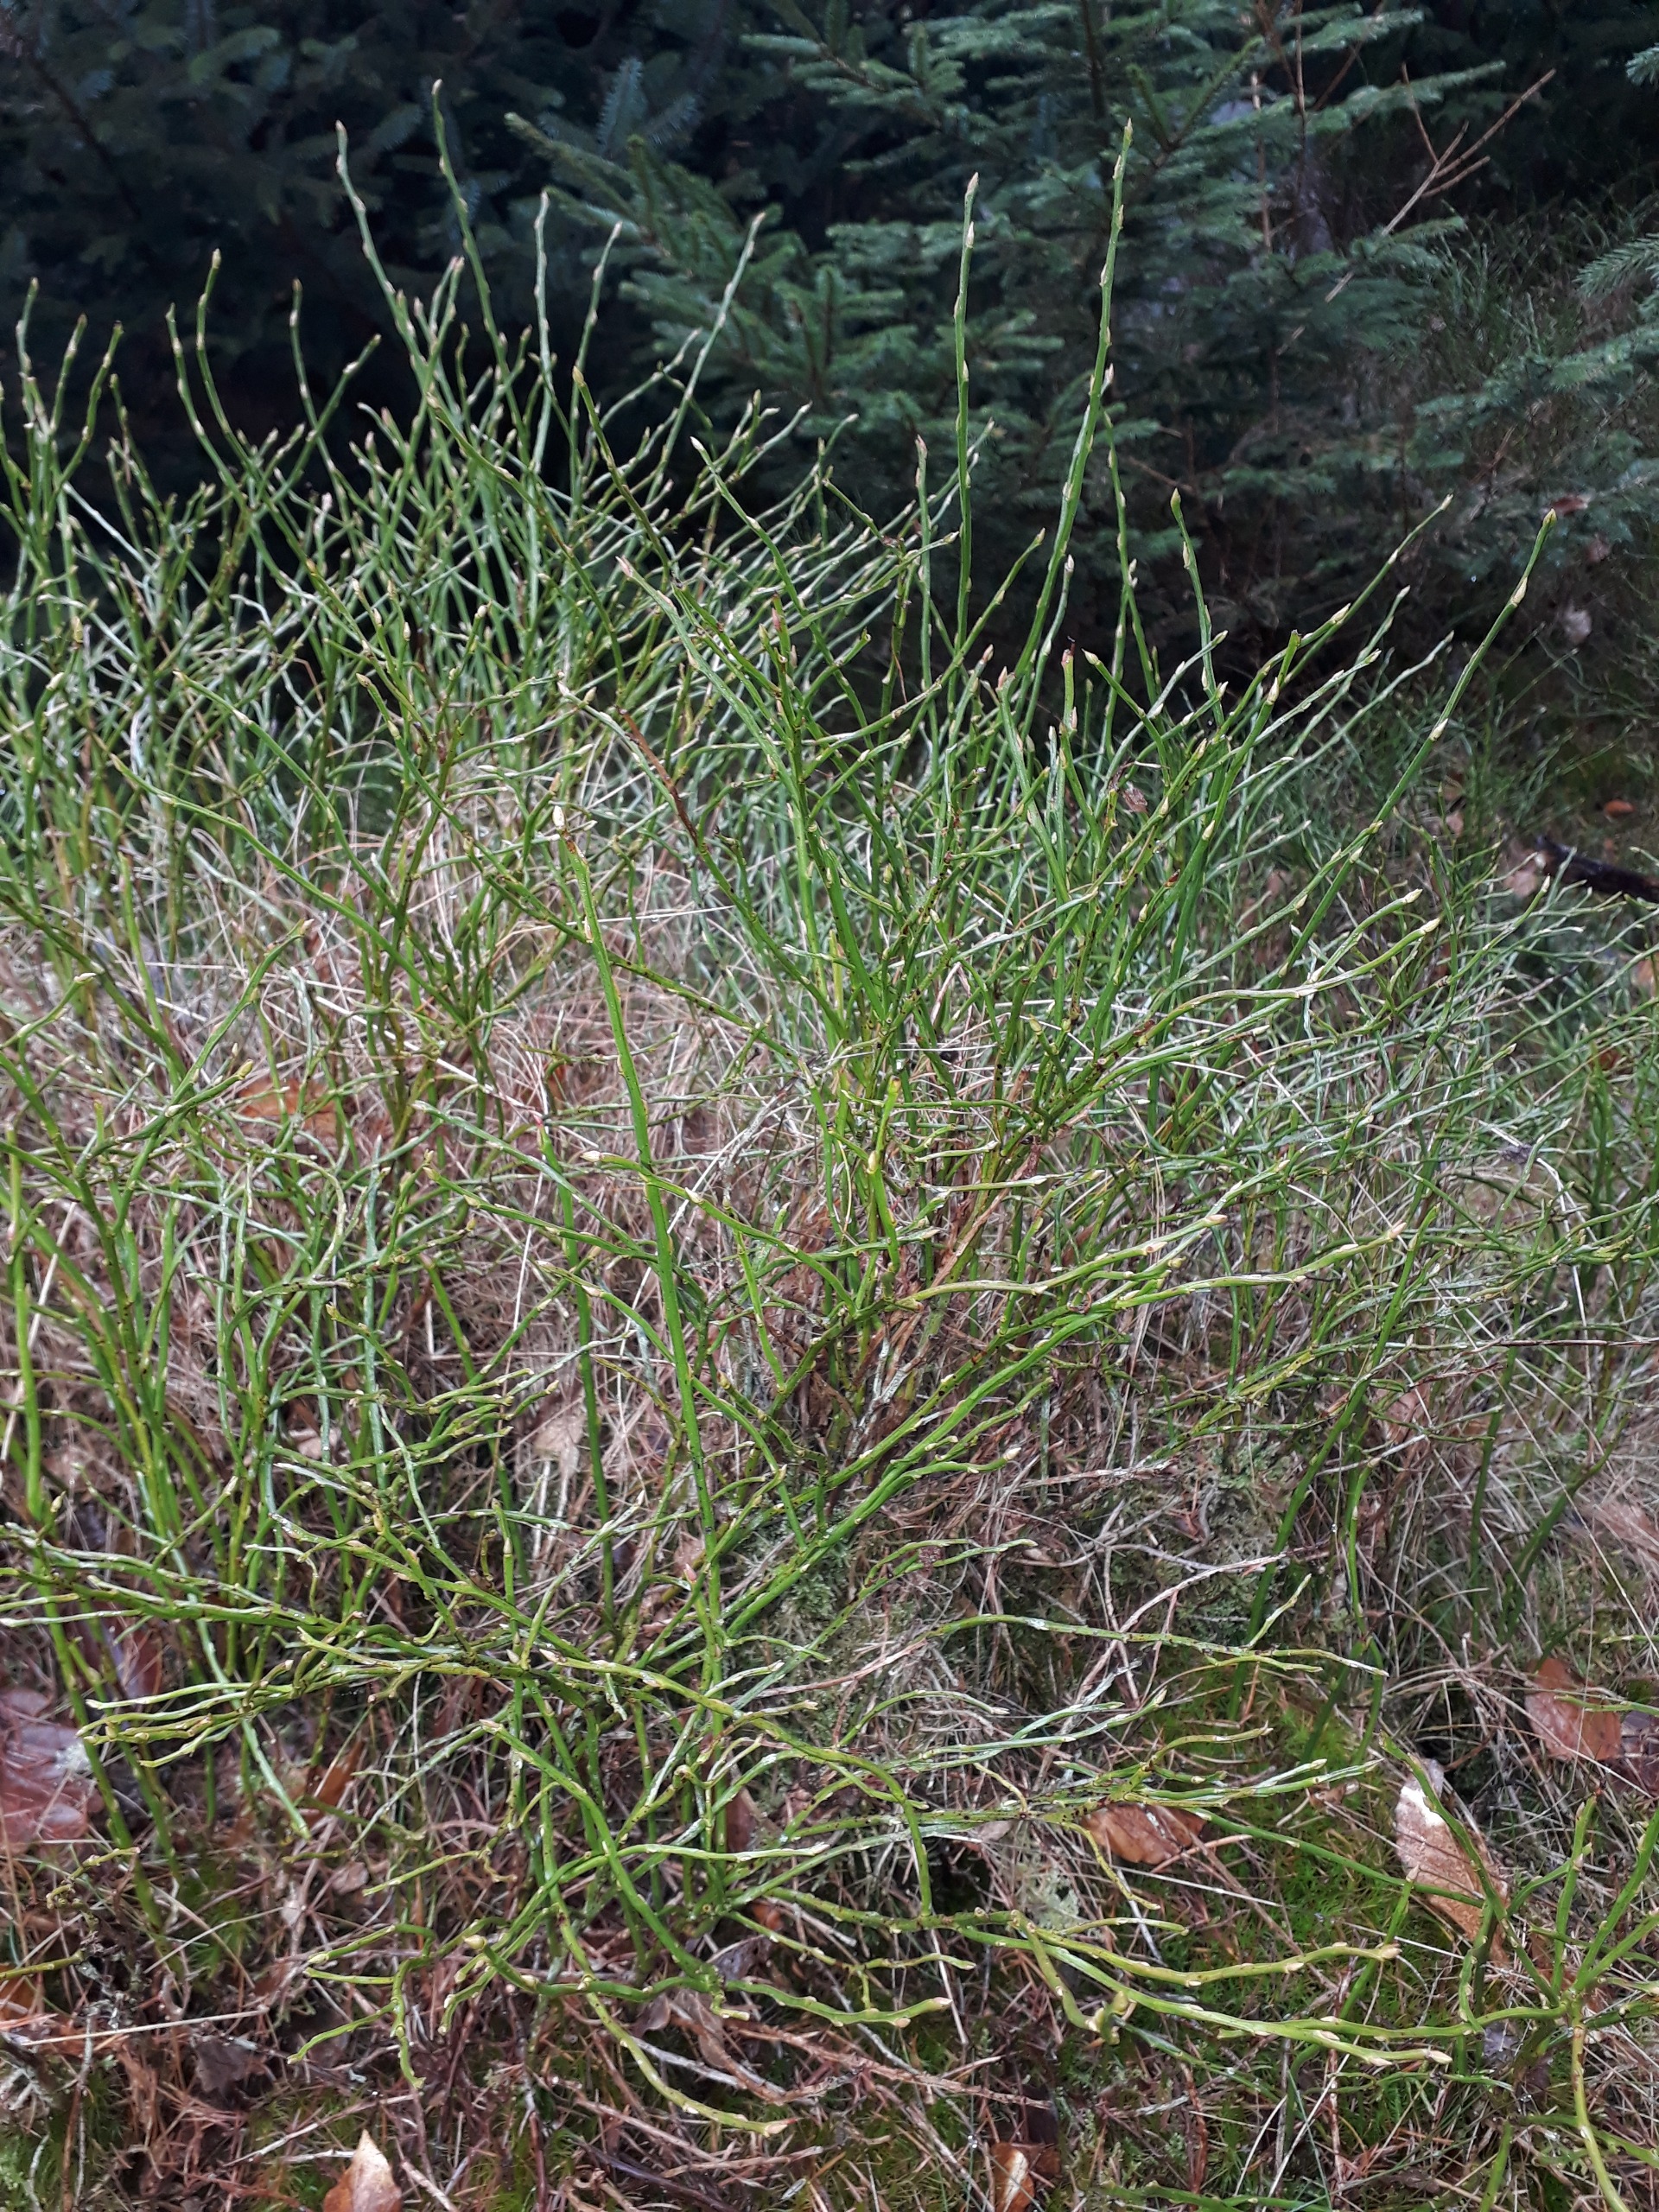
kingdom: Plantae
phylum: Tracheophyta
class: Magnoliopsida
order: Ericales
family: Ericaceae
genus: Vaccinium
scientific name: Vaccinium myrtillus
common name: Blåbær
